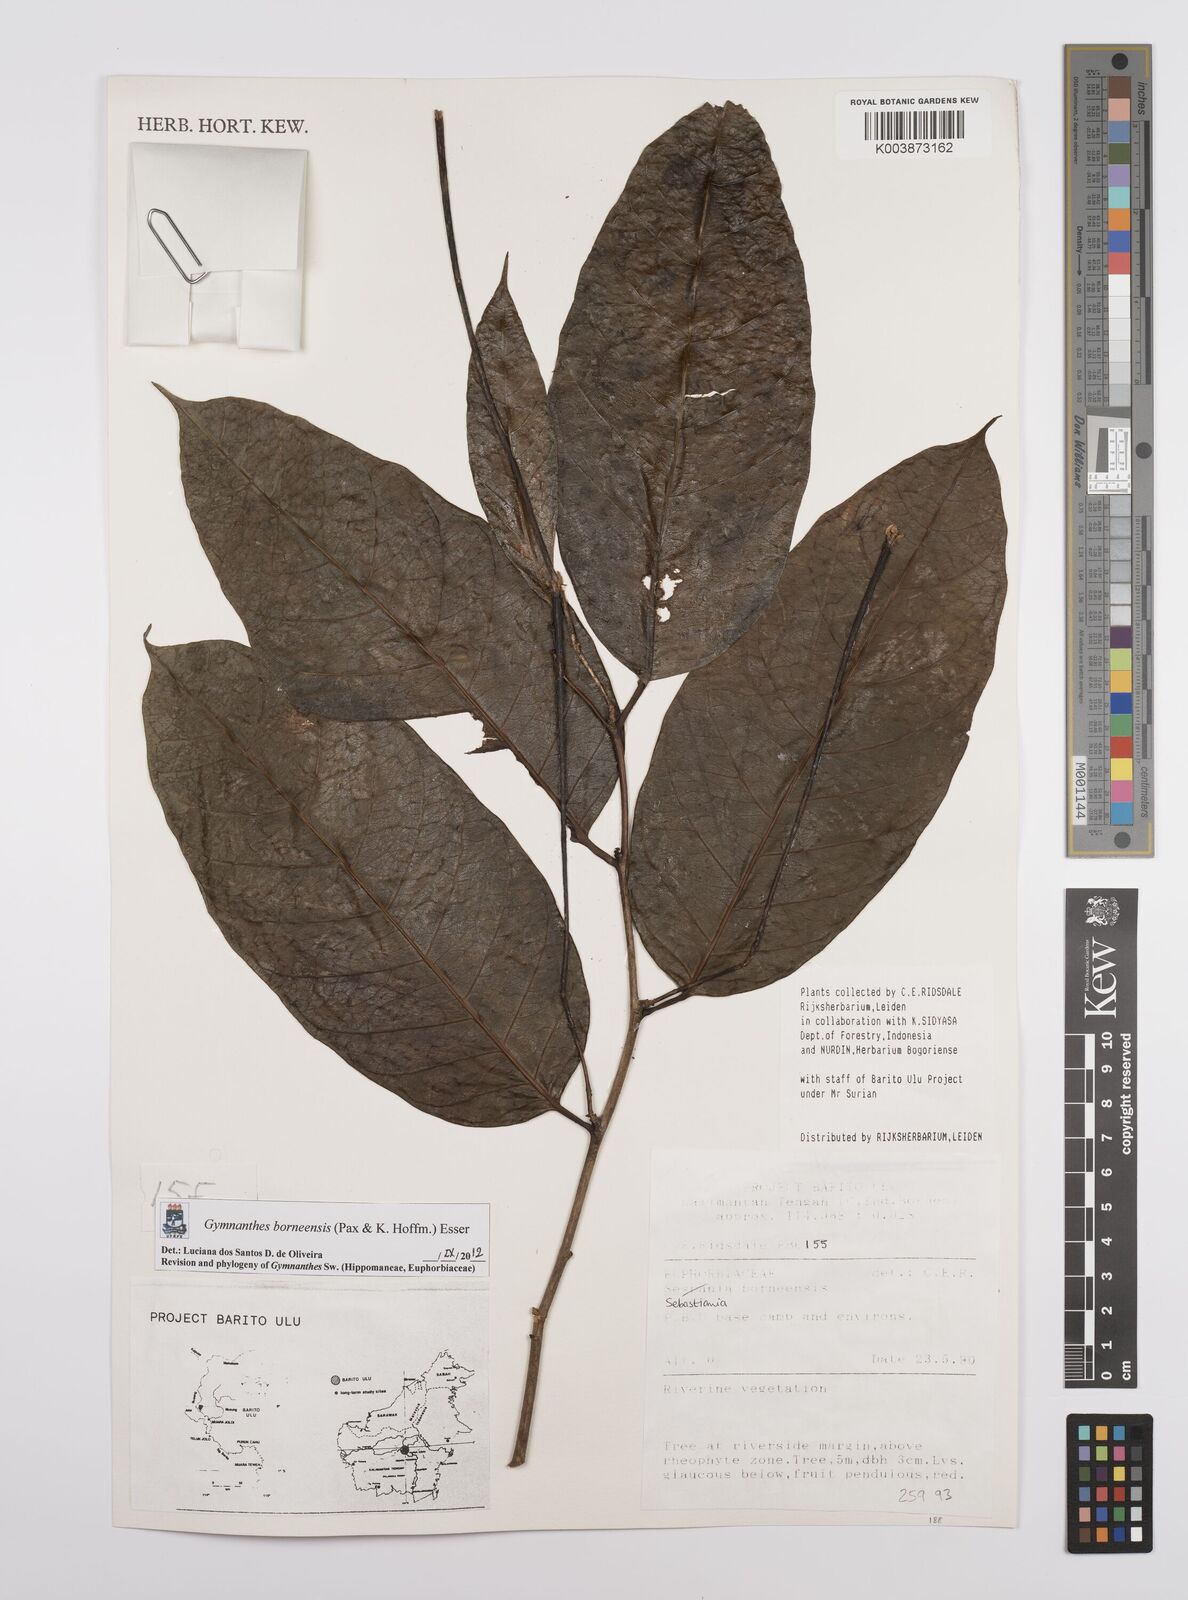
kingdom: Plantae
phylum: Tracheophyta
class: Magnoliopsida
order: Malpighiales
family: Euphorbiaceae
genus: Gymnanthes
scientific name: Gymnanthes borneensis
